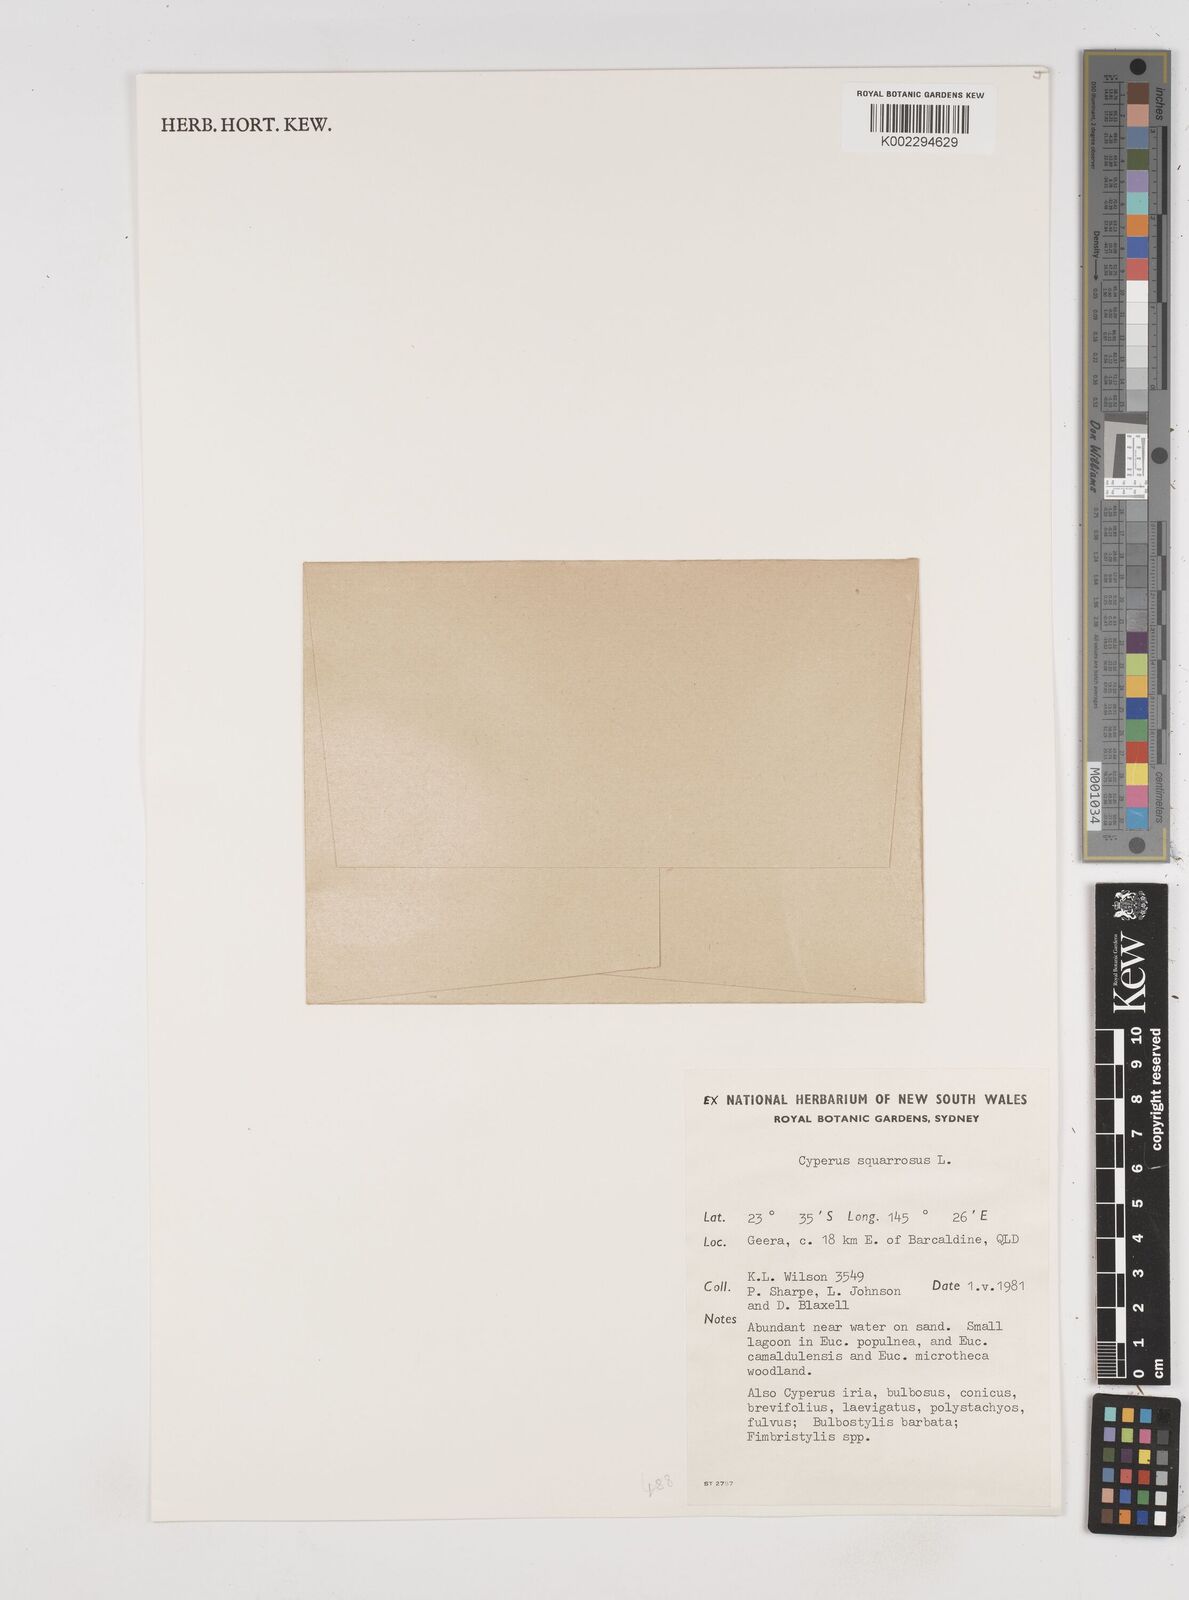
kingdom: Plantae
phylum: Tracheophyta
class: Liliopsida
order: Poales
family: Cyperaceae
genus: Cyperus
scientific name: Cyperus squarrosus
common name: Awned cyperus
